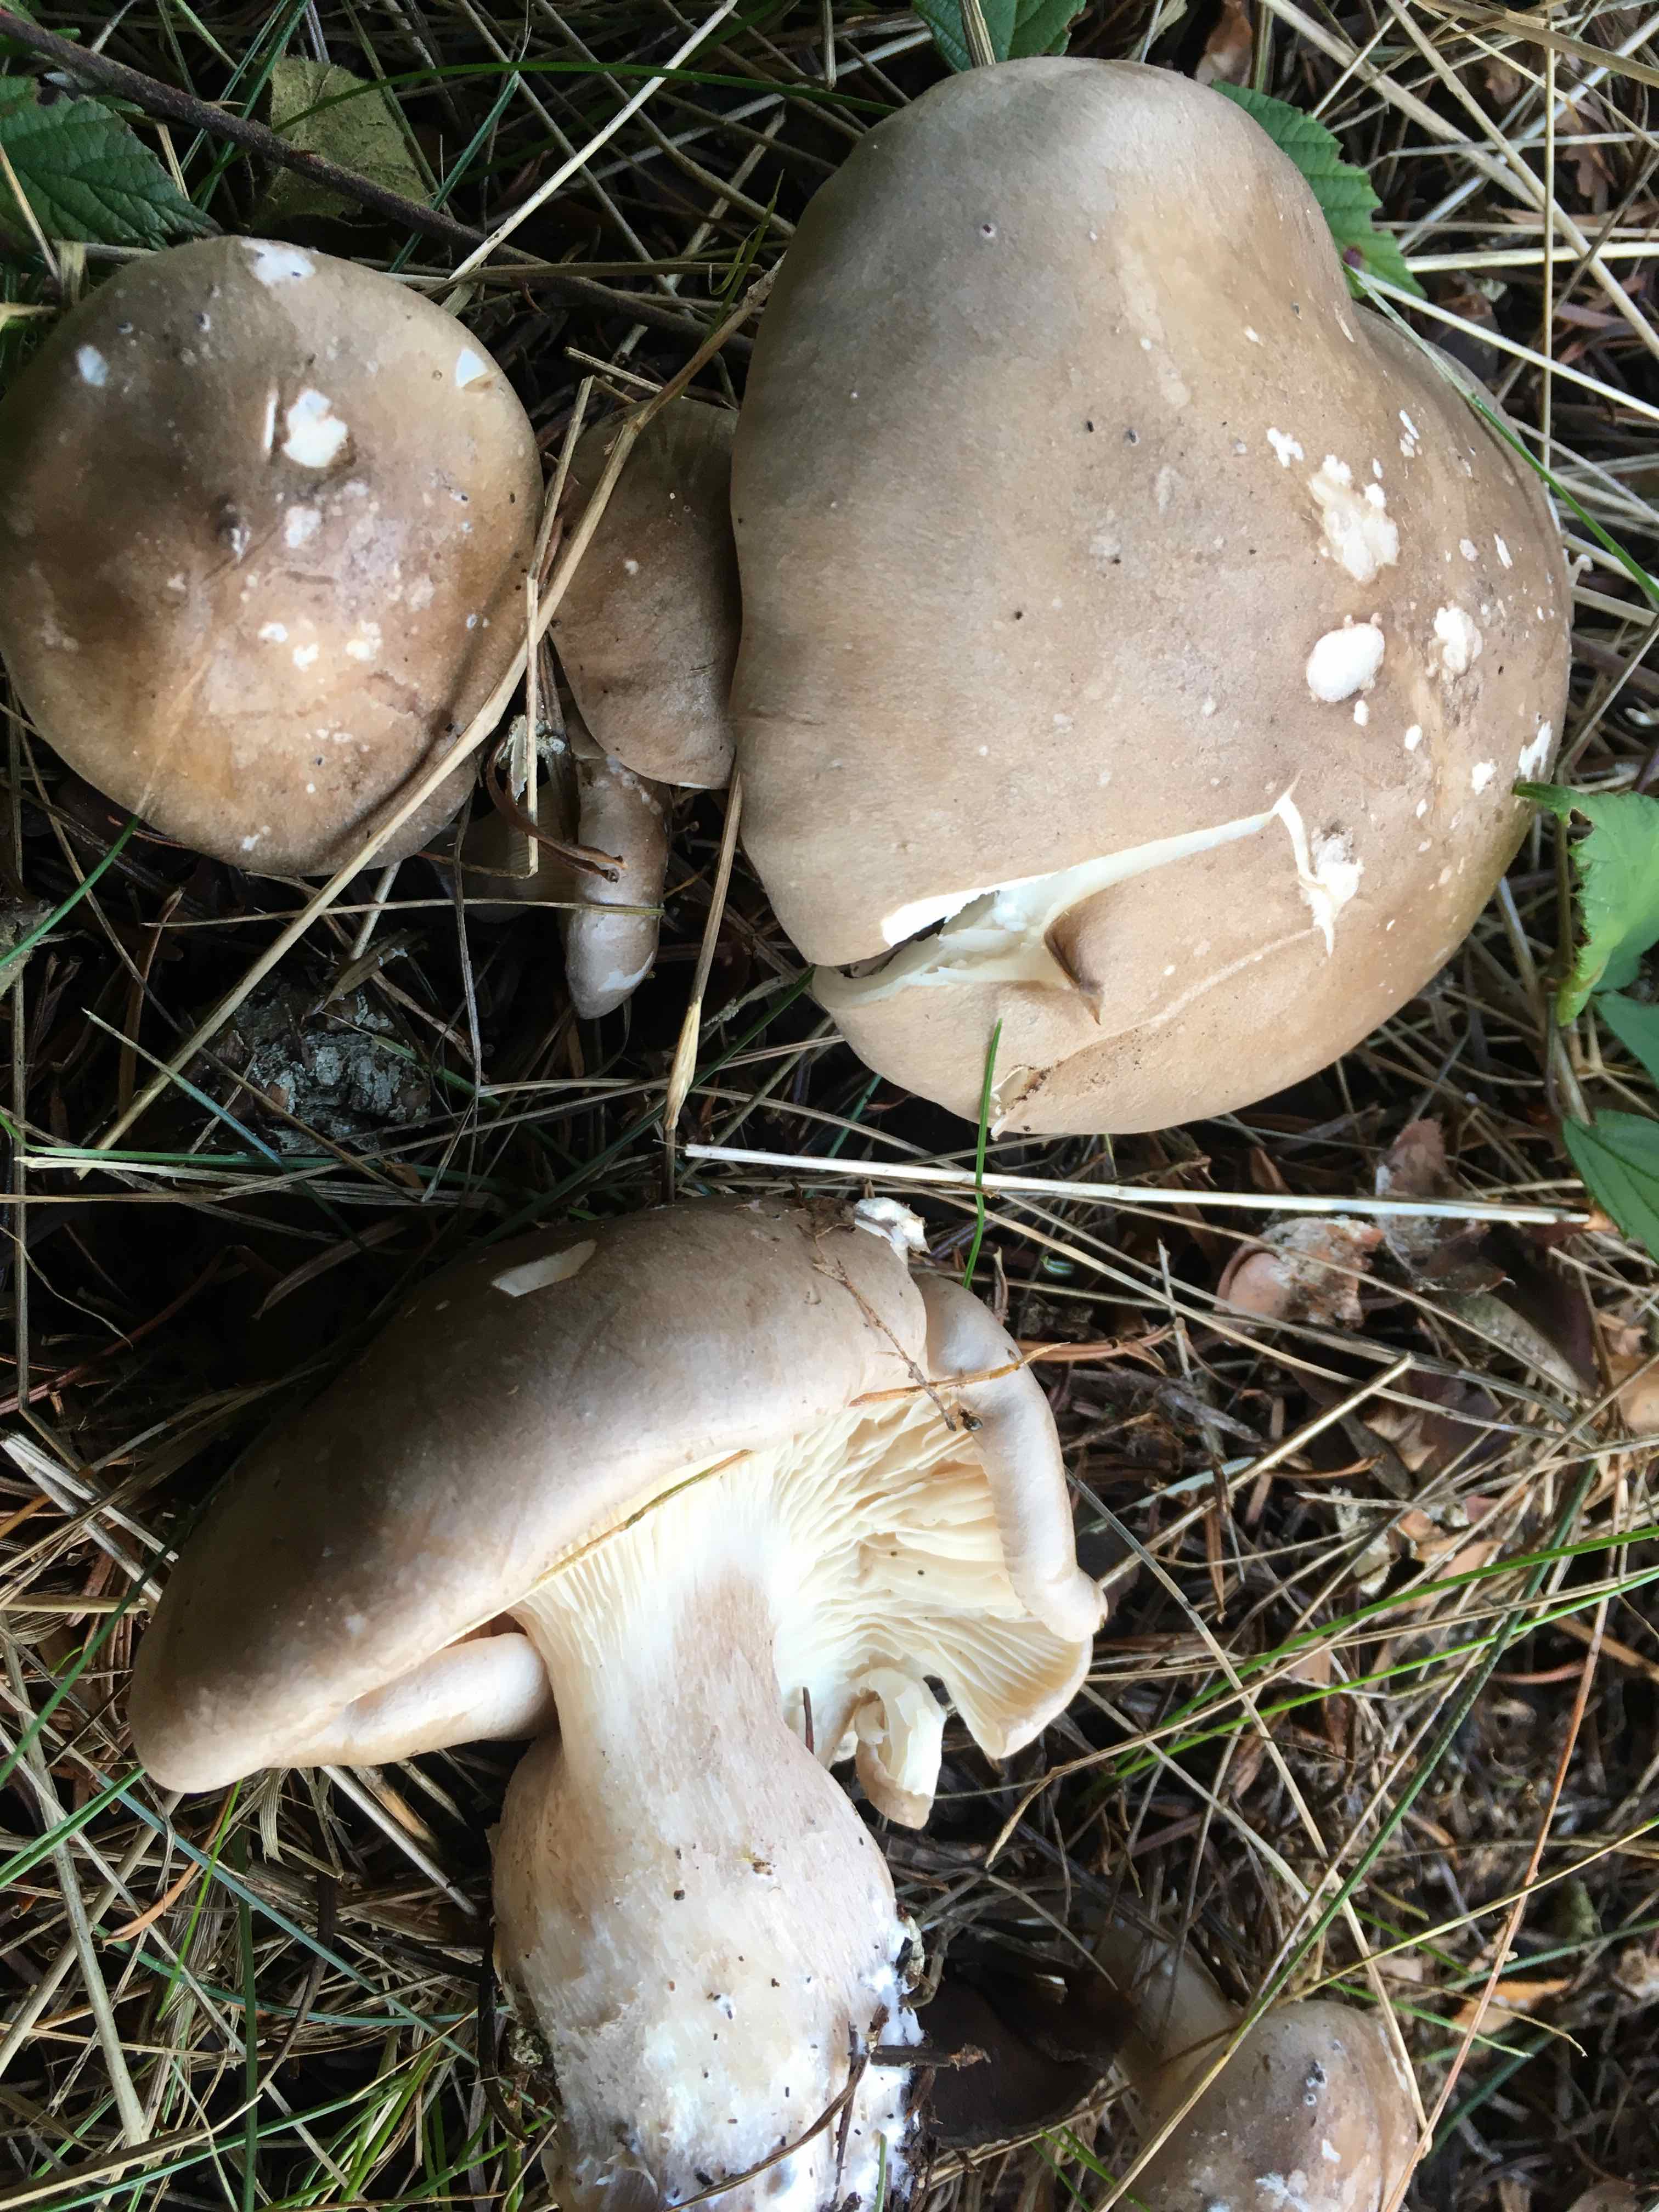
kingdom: Fungi
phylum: Basidiomycota
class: Agaricomycetes
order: Agaricales
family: Tricholomataceae
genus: Clitocybe
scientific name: Clitocybe nebularis
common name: tåge-tragthat
